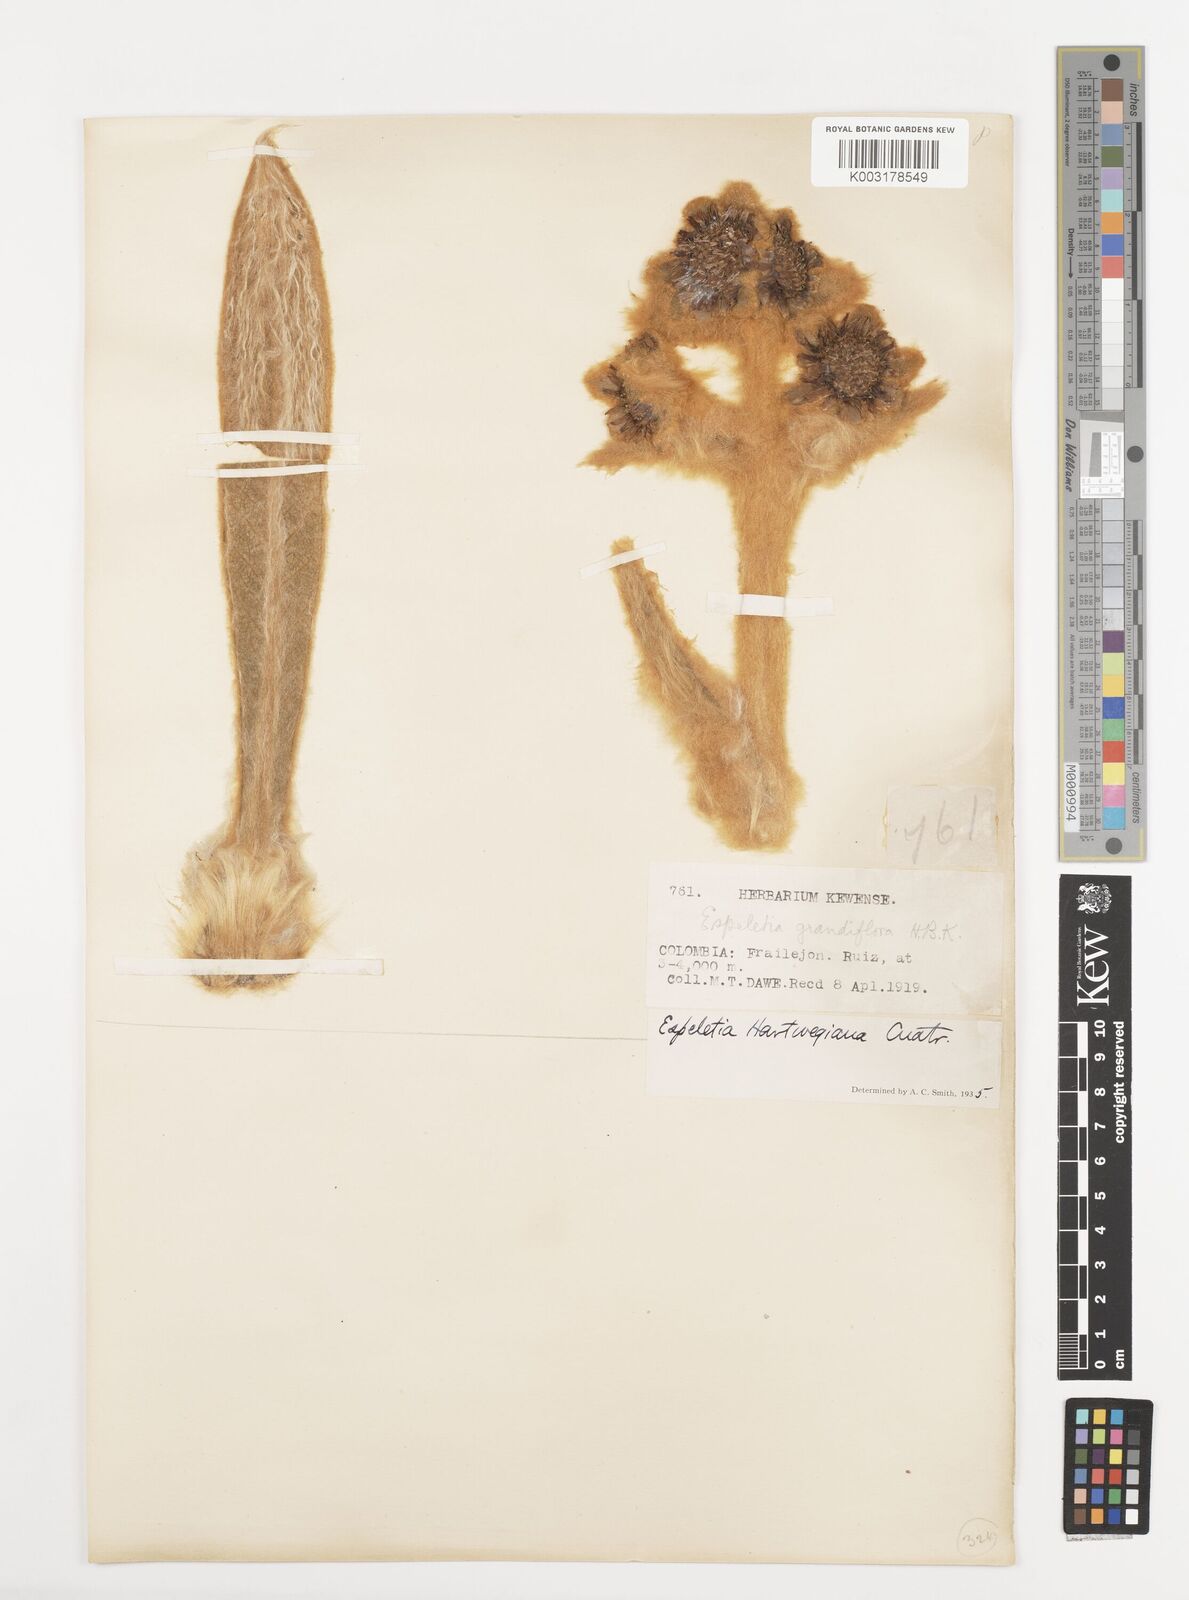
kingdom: Plantae
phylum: Tracheophyta
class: Magnoliopsida
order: Asterales
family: Asteraceae
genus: Espeletia
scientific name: Espeletia hartwegiana
